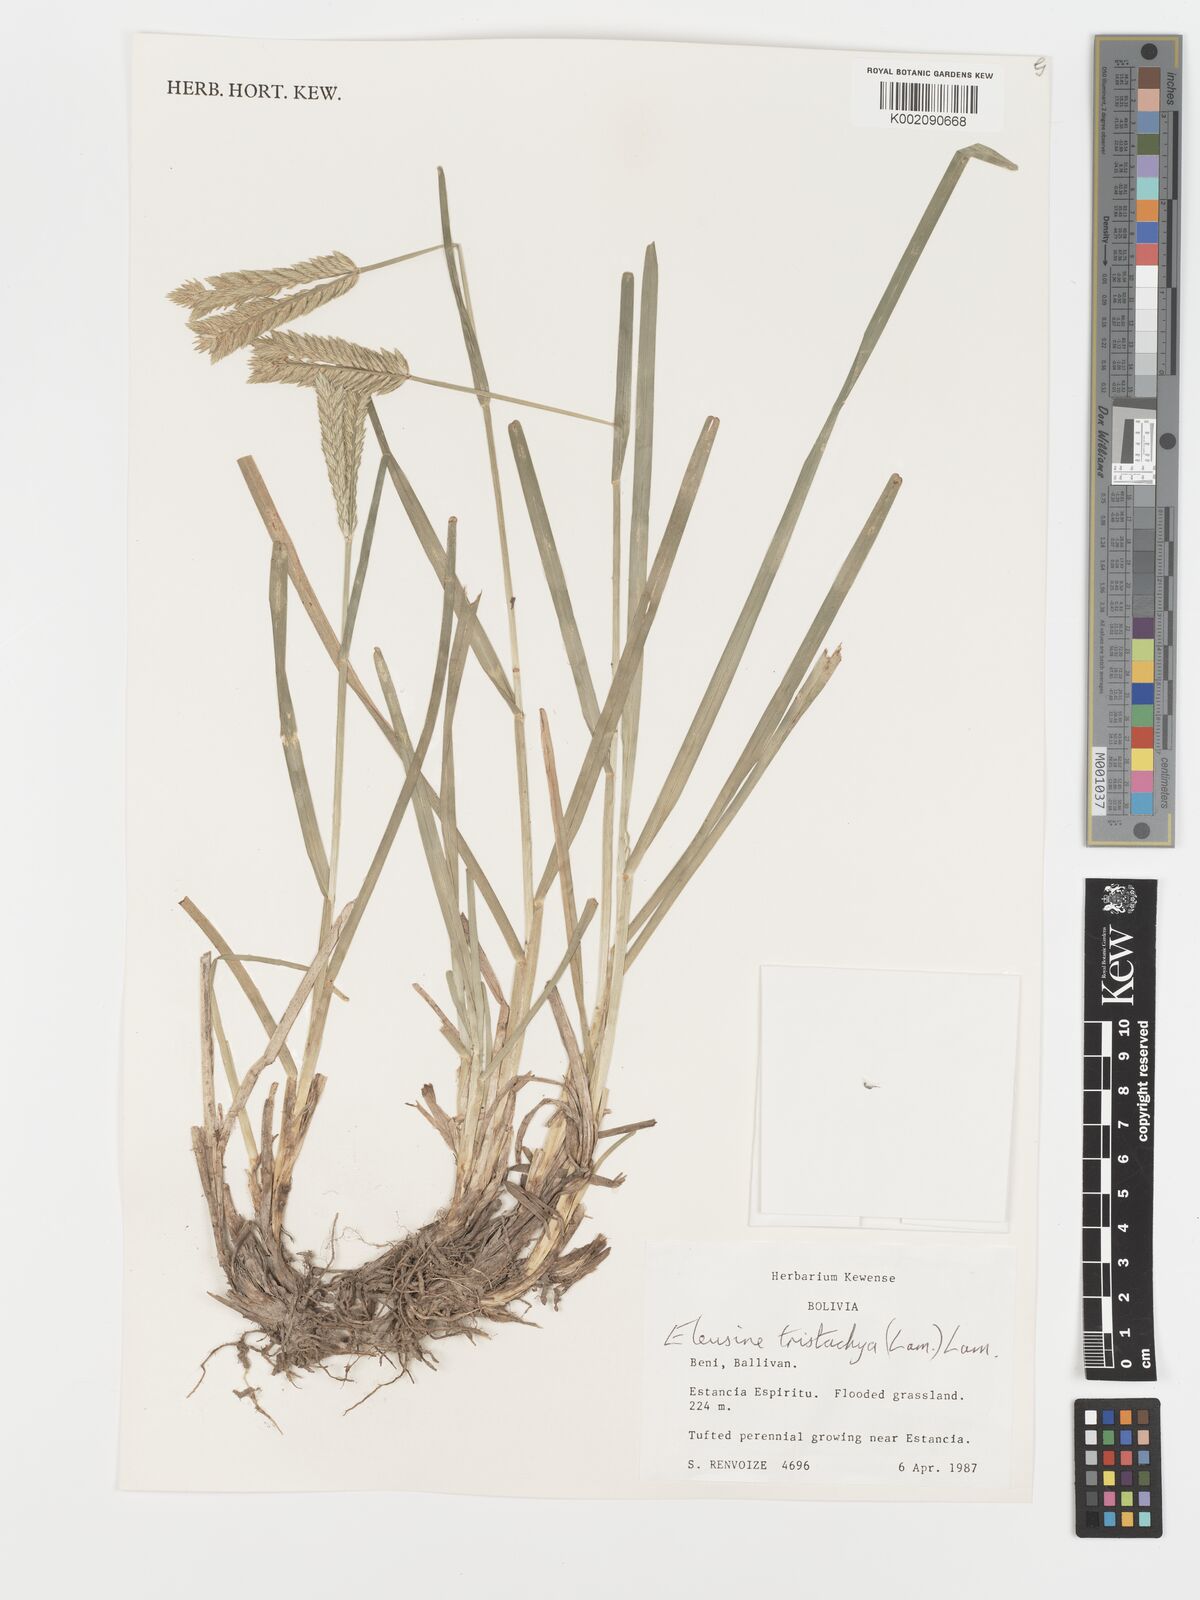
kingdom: Plantae
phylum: Tracheophyta
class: Liliopsida
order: Poales
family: Poaceae
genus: Eleusine
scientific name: Eleusine tristachya
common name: American yard-grass
